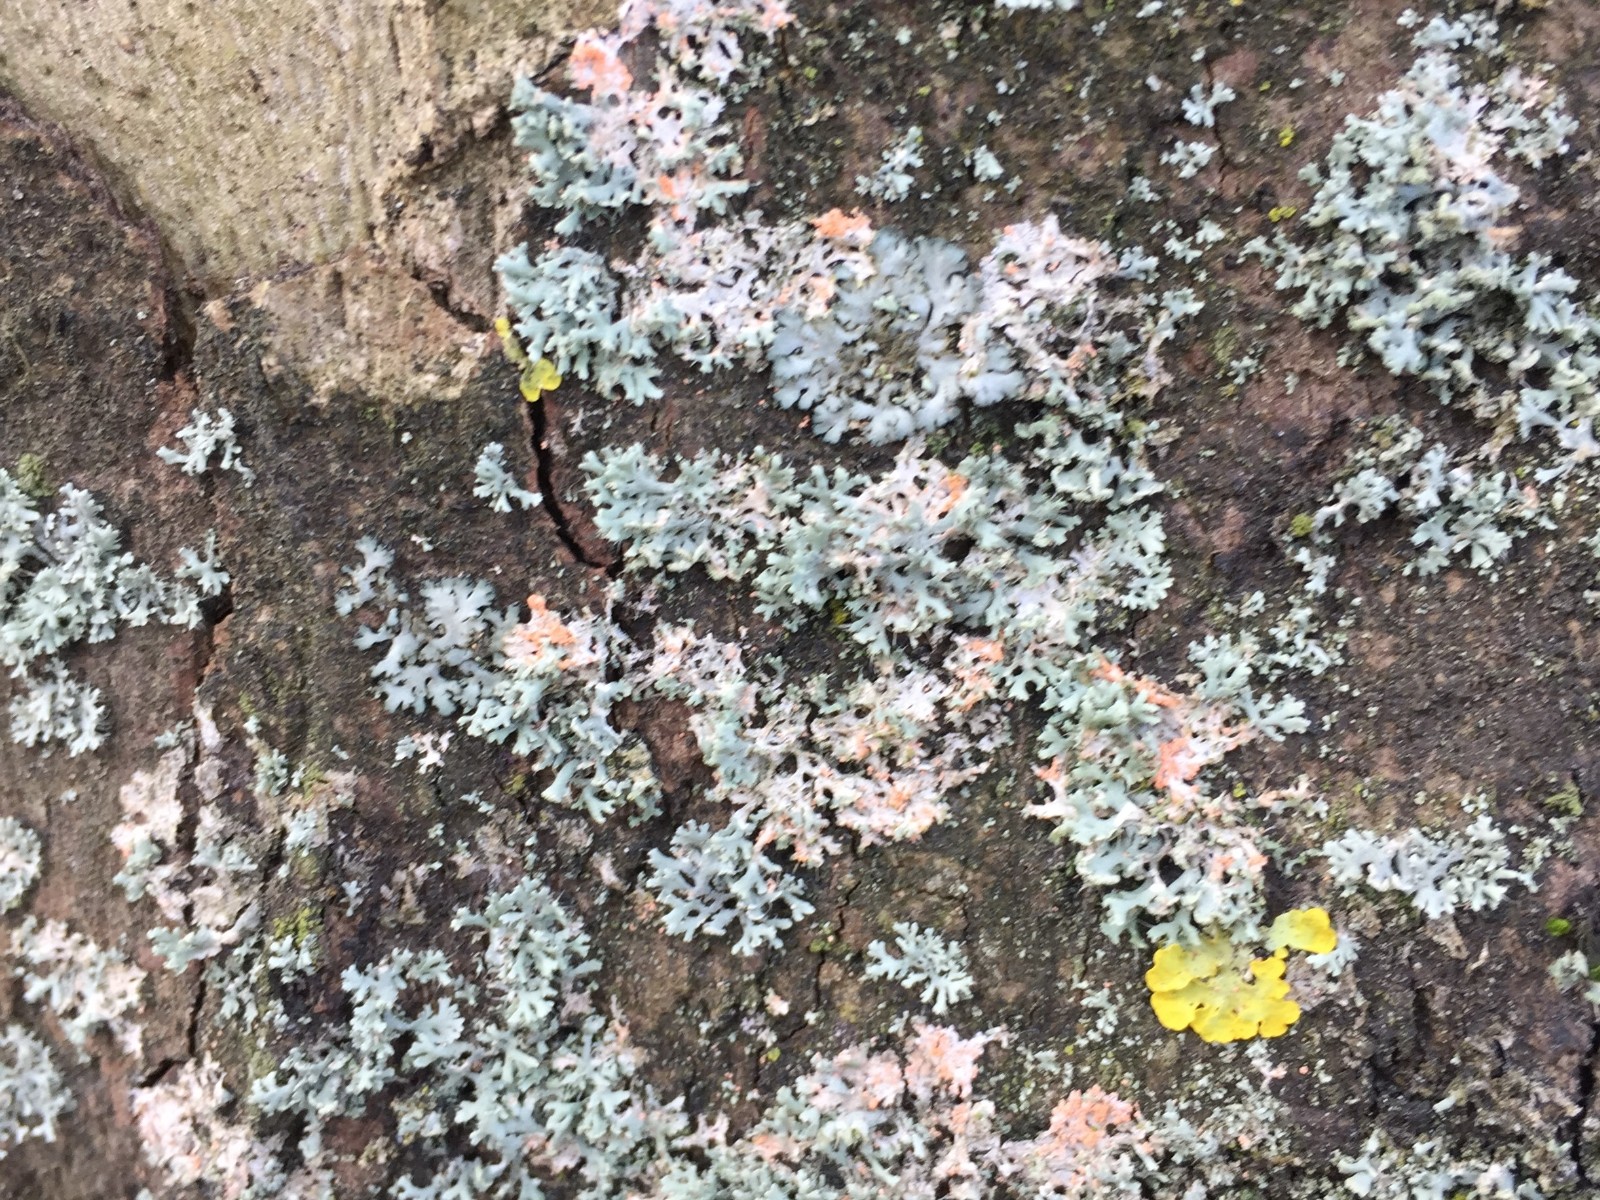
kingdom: Fungi
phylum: Basidiomycota
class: Agaricomycetes
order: Corticiales
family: Corticiaceae
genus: Erythricium
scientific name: Erythricium aurantiacum
